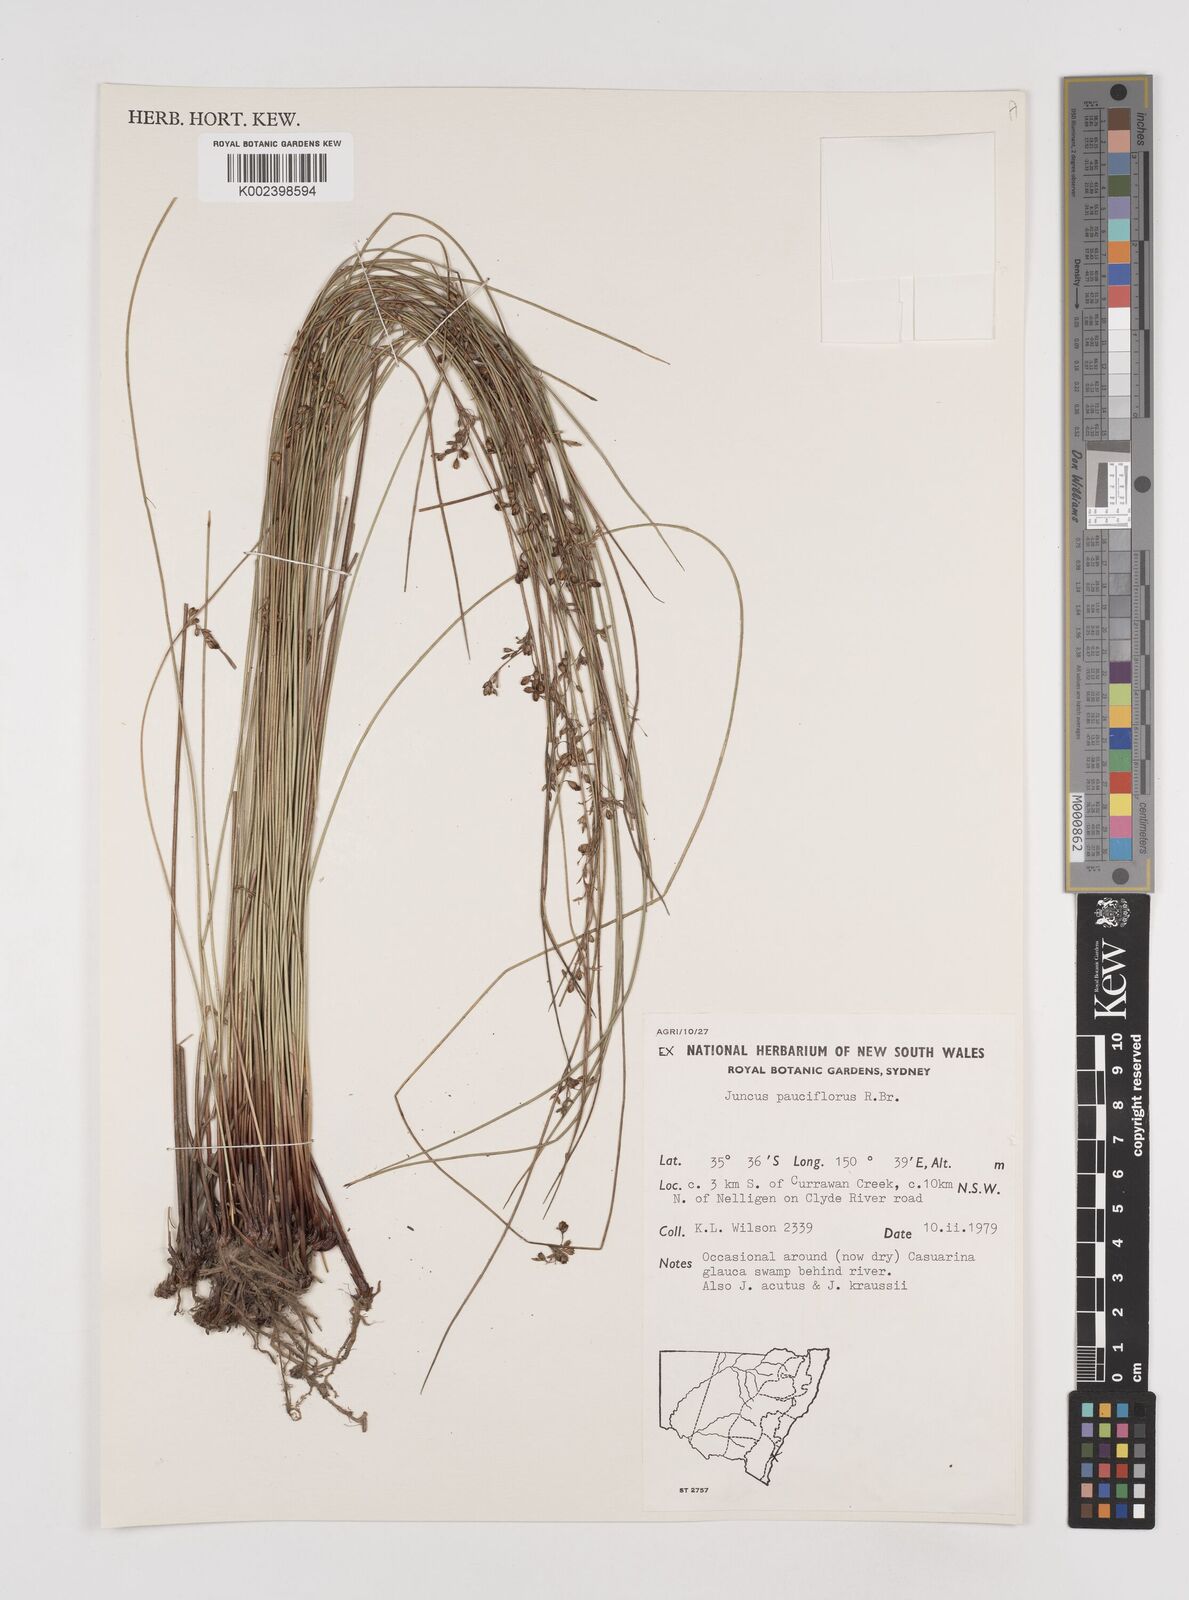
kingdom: Plantae
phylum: Tracheophyta
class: Liliopsida
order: Poales
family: Juncaceae
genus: Juncus
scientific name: Juncus pauciflorus
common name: Loose-flowered rush
